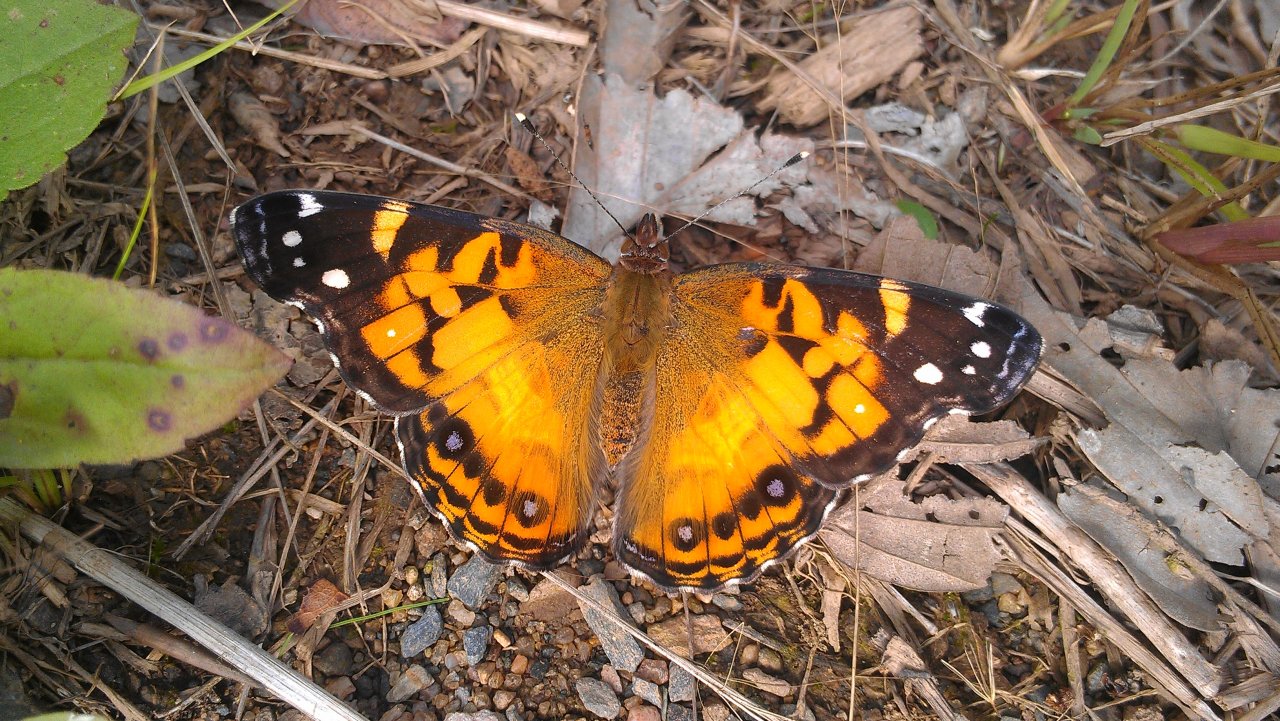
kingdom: Animalia
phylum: Arthropoda
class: Insecta
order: Lepidoptera
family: Nymphalidae
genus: Vanessa
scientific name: Vanessa virginiensis
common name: American Lady
